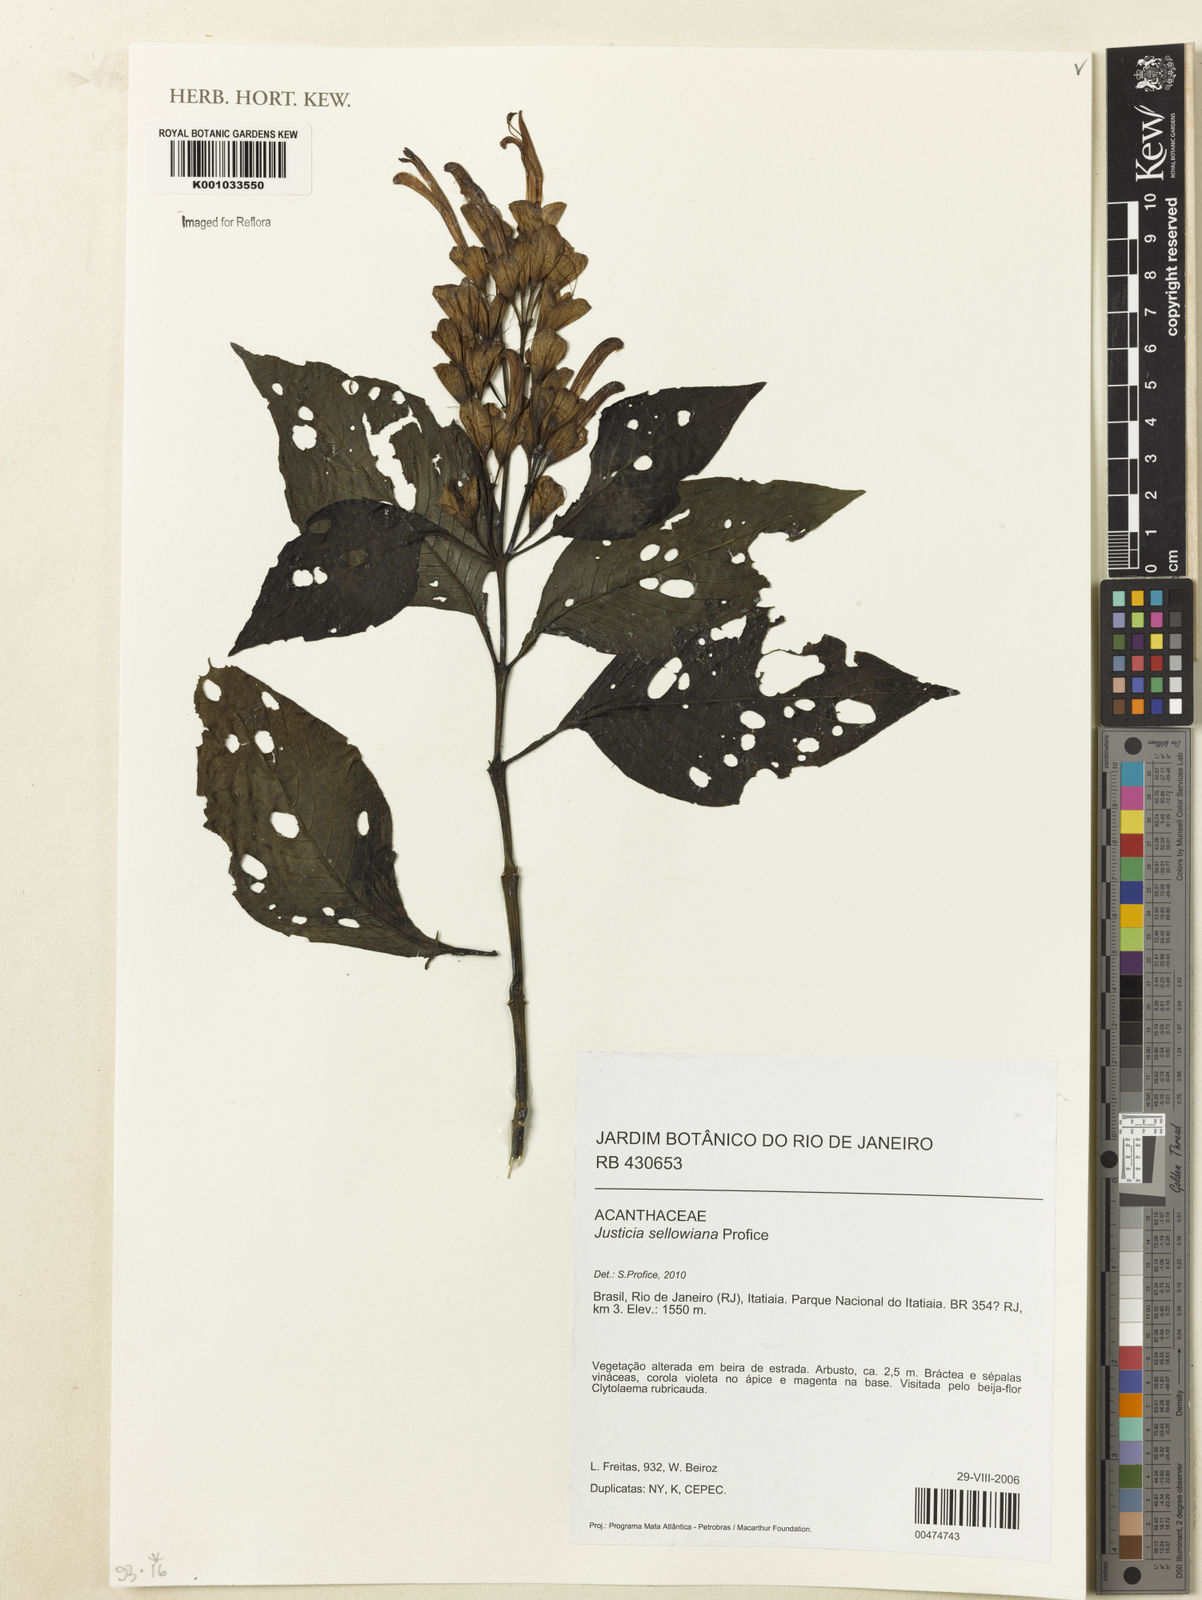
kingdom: Plantae
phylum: Tracheophyta
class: Magnoliopsida
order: Lamiales
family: Acanthaceae
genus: Justicia
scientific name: Justicia sellowiana
